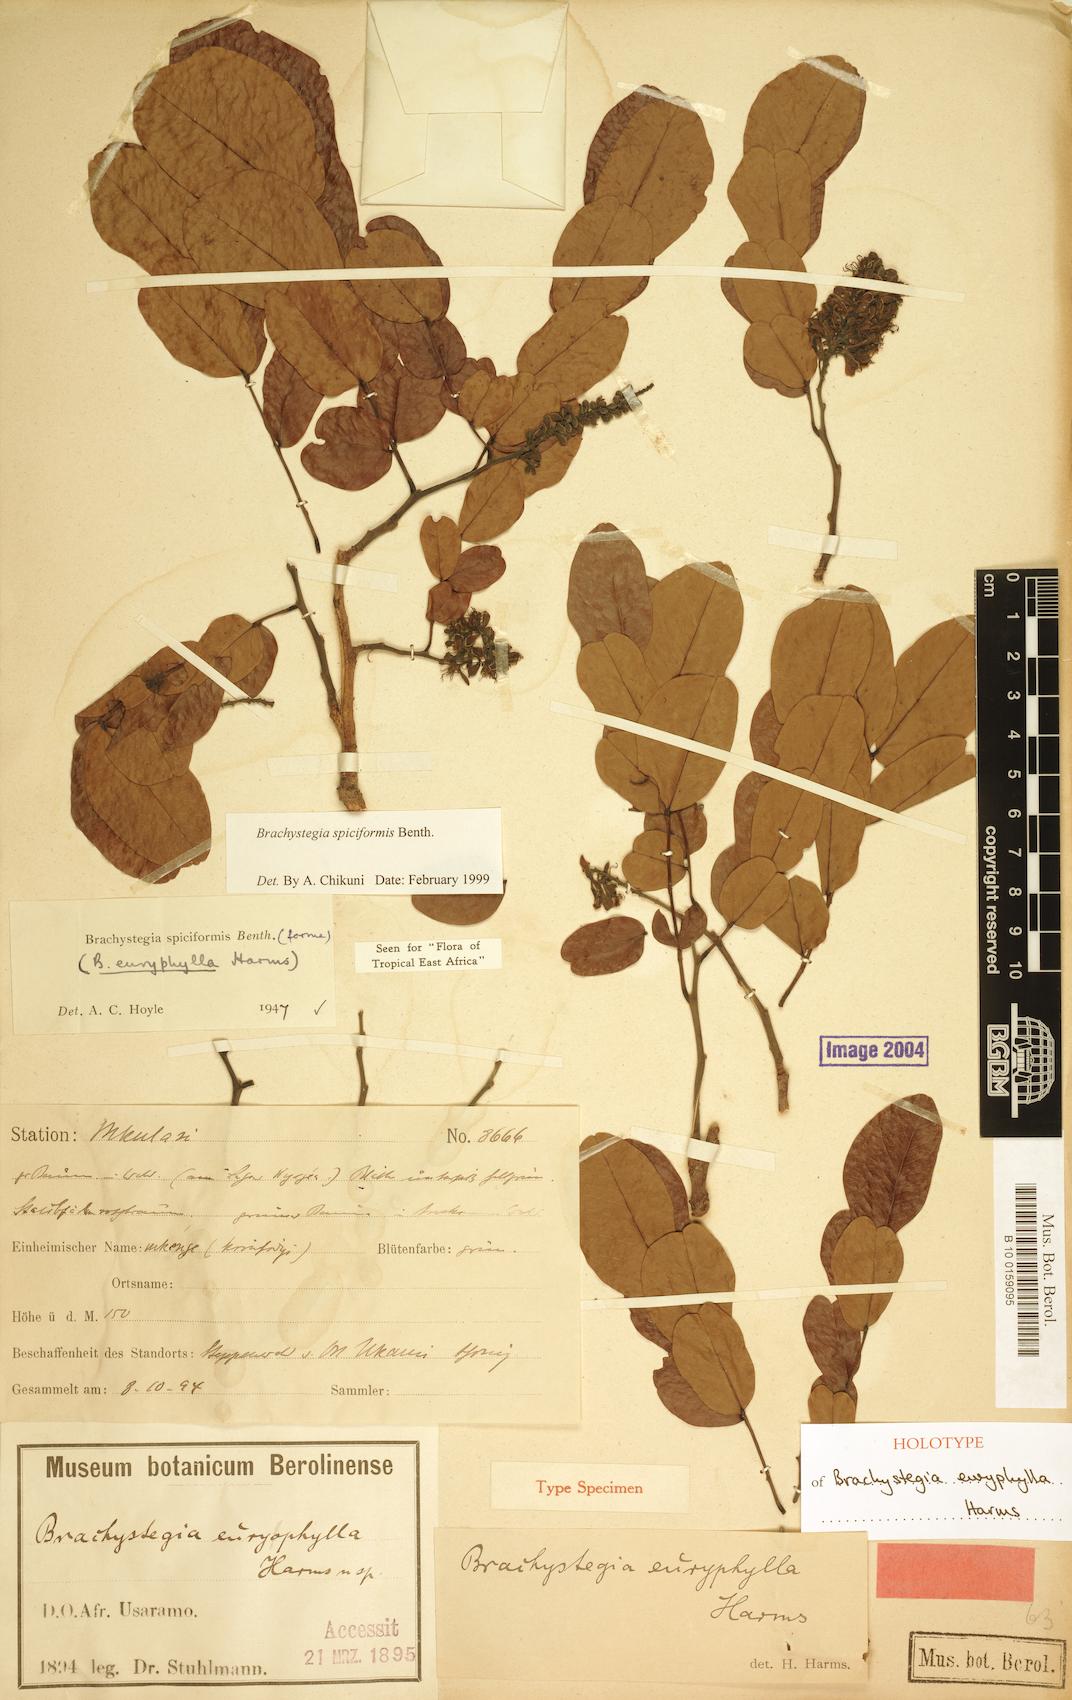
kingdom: Plantae
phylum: Tracheophyta
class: Magnoliopsida
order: Fabales
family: Fabaceae
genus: Brachystegia
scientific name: Brachystegia spiciformis
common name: Zebrawood
